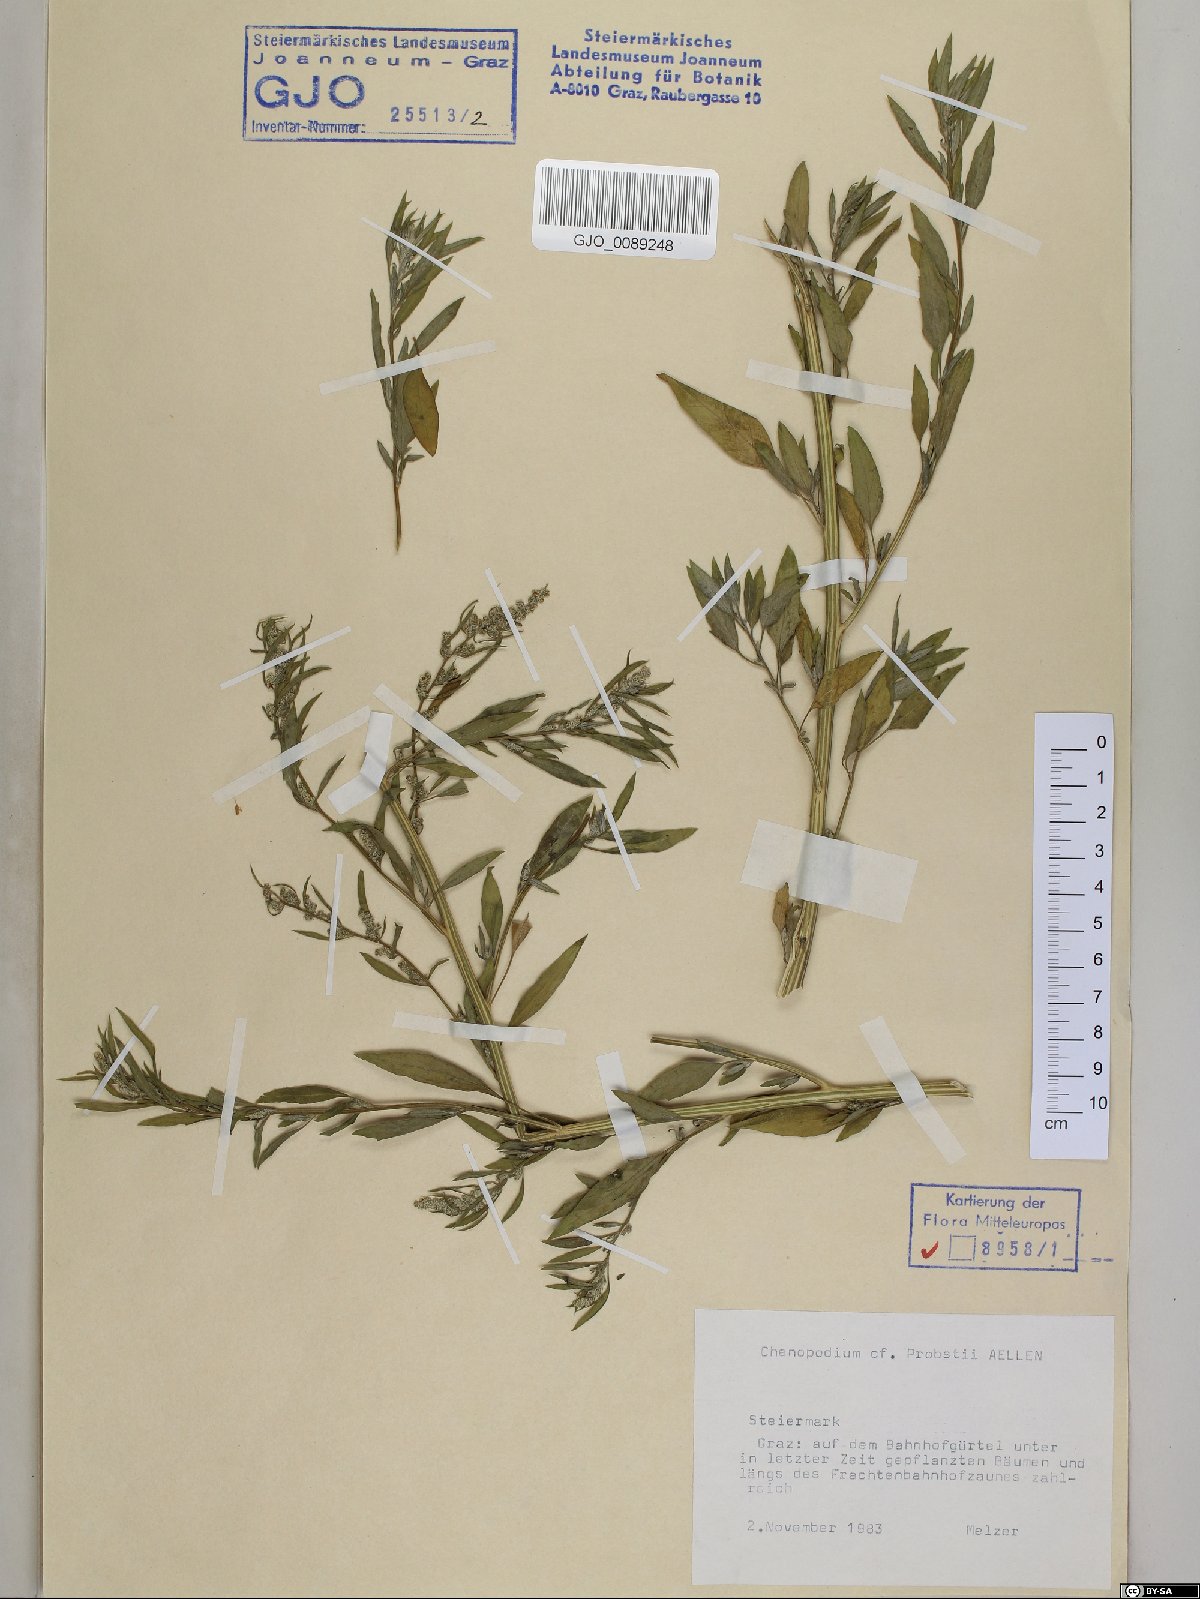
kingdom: Plantae
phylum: Tracheophyta
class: Magnoliopsida
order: Caryophyllales
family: Amaranthaceae
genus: Chenopodium
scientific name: Chenopodium probstii
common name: Probst's goosefoot
